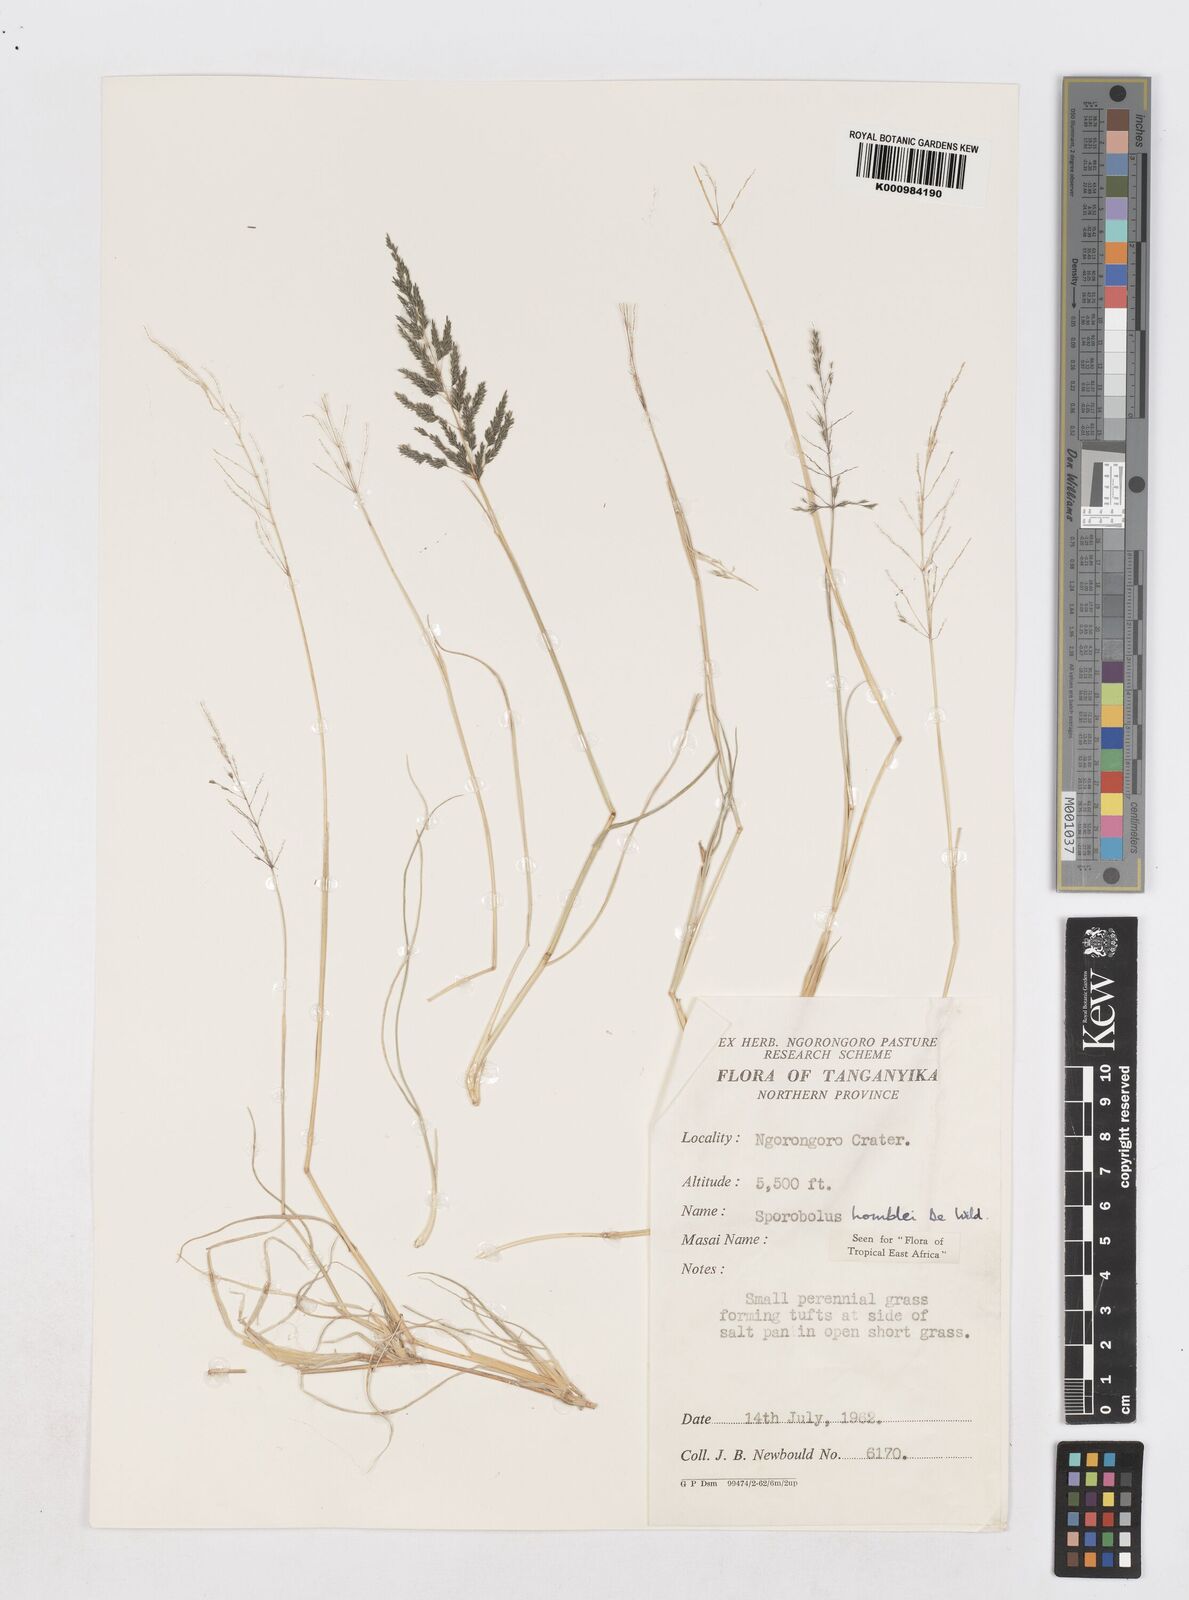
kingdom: Plantae
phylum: Tracheophyta
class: Liliopsida
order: Poales
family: Poaceae
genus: Sporobolus
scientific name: Sporobolus ioclados
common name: Pan dropseed
